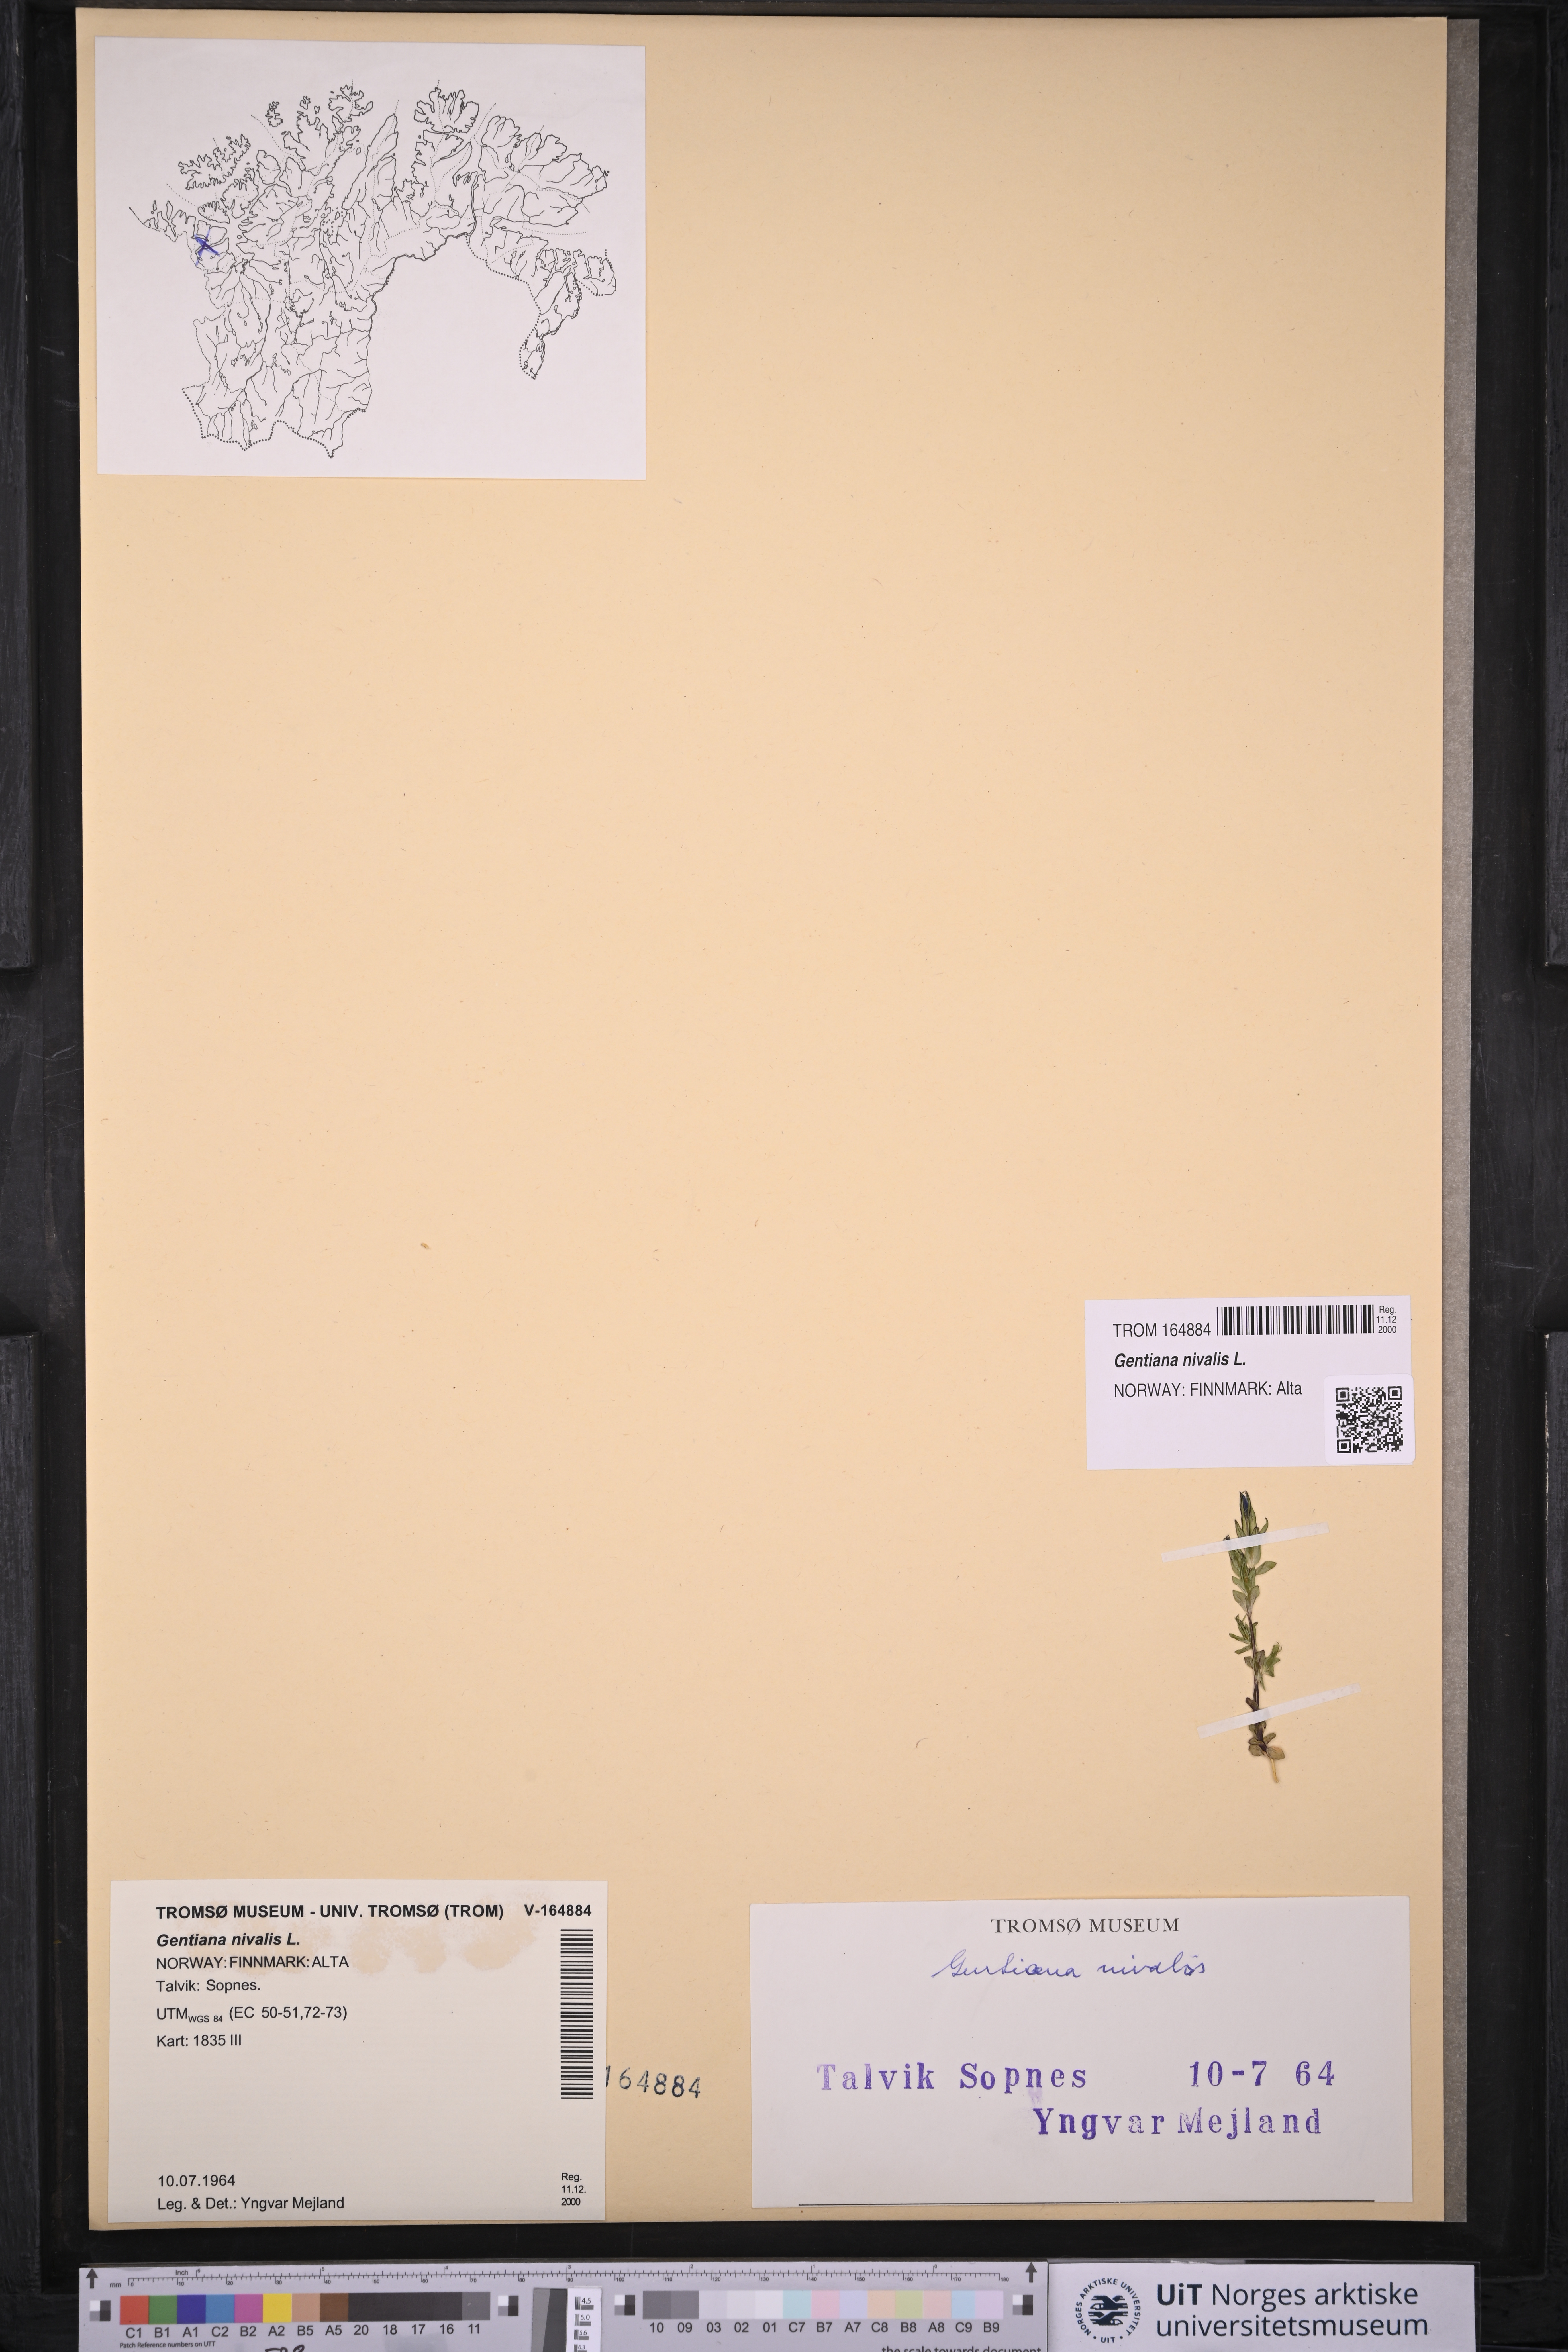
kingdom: Plantae
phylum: Tracheophyta
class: Magnoliopsida
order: Gentianales
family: Gentianaceae
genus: Gentiana
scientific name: Gentiana nivalis
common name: Alpine gentian
